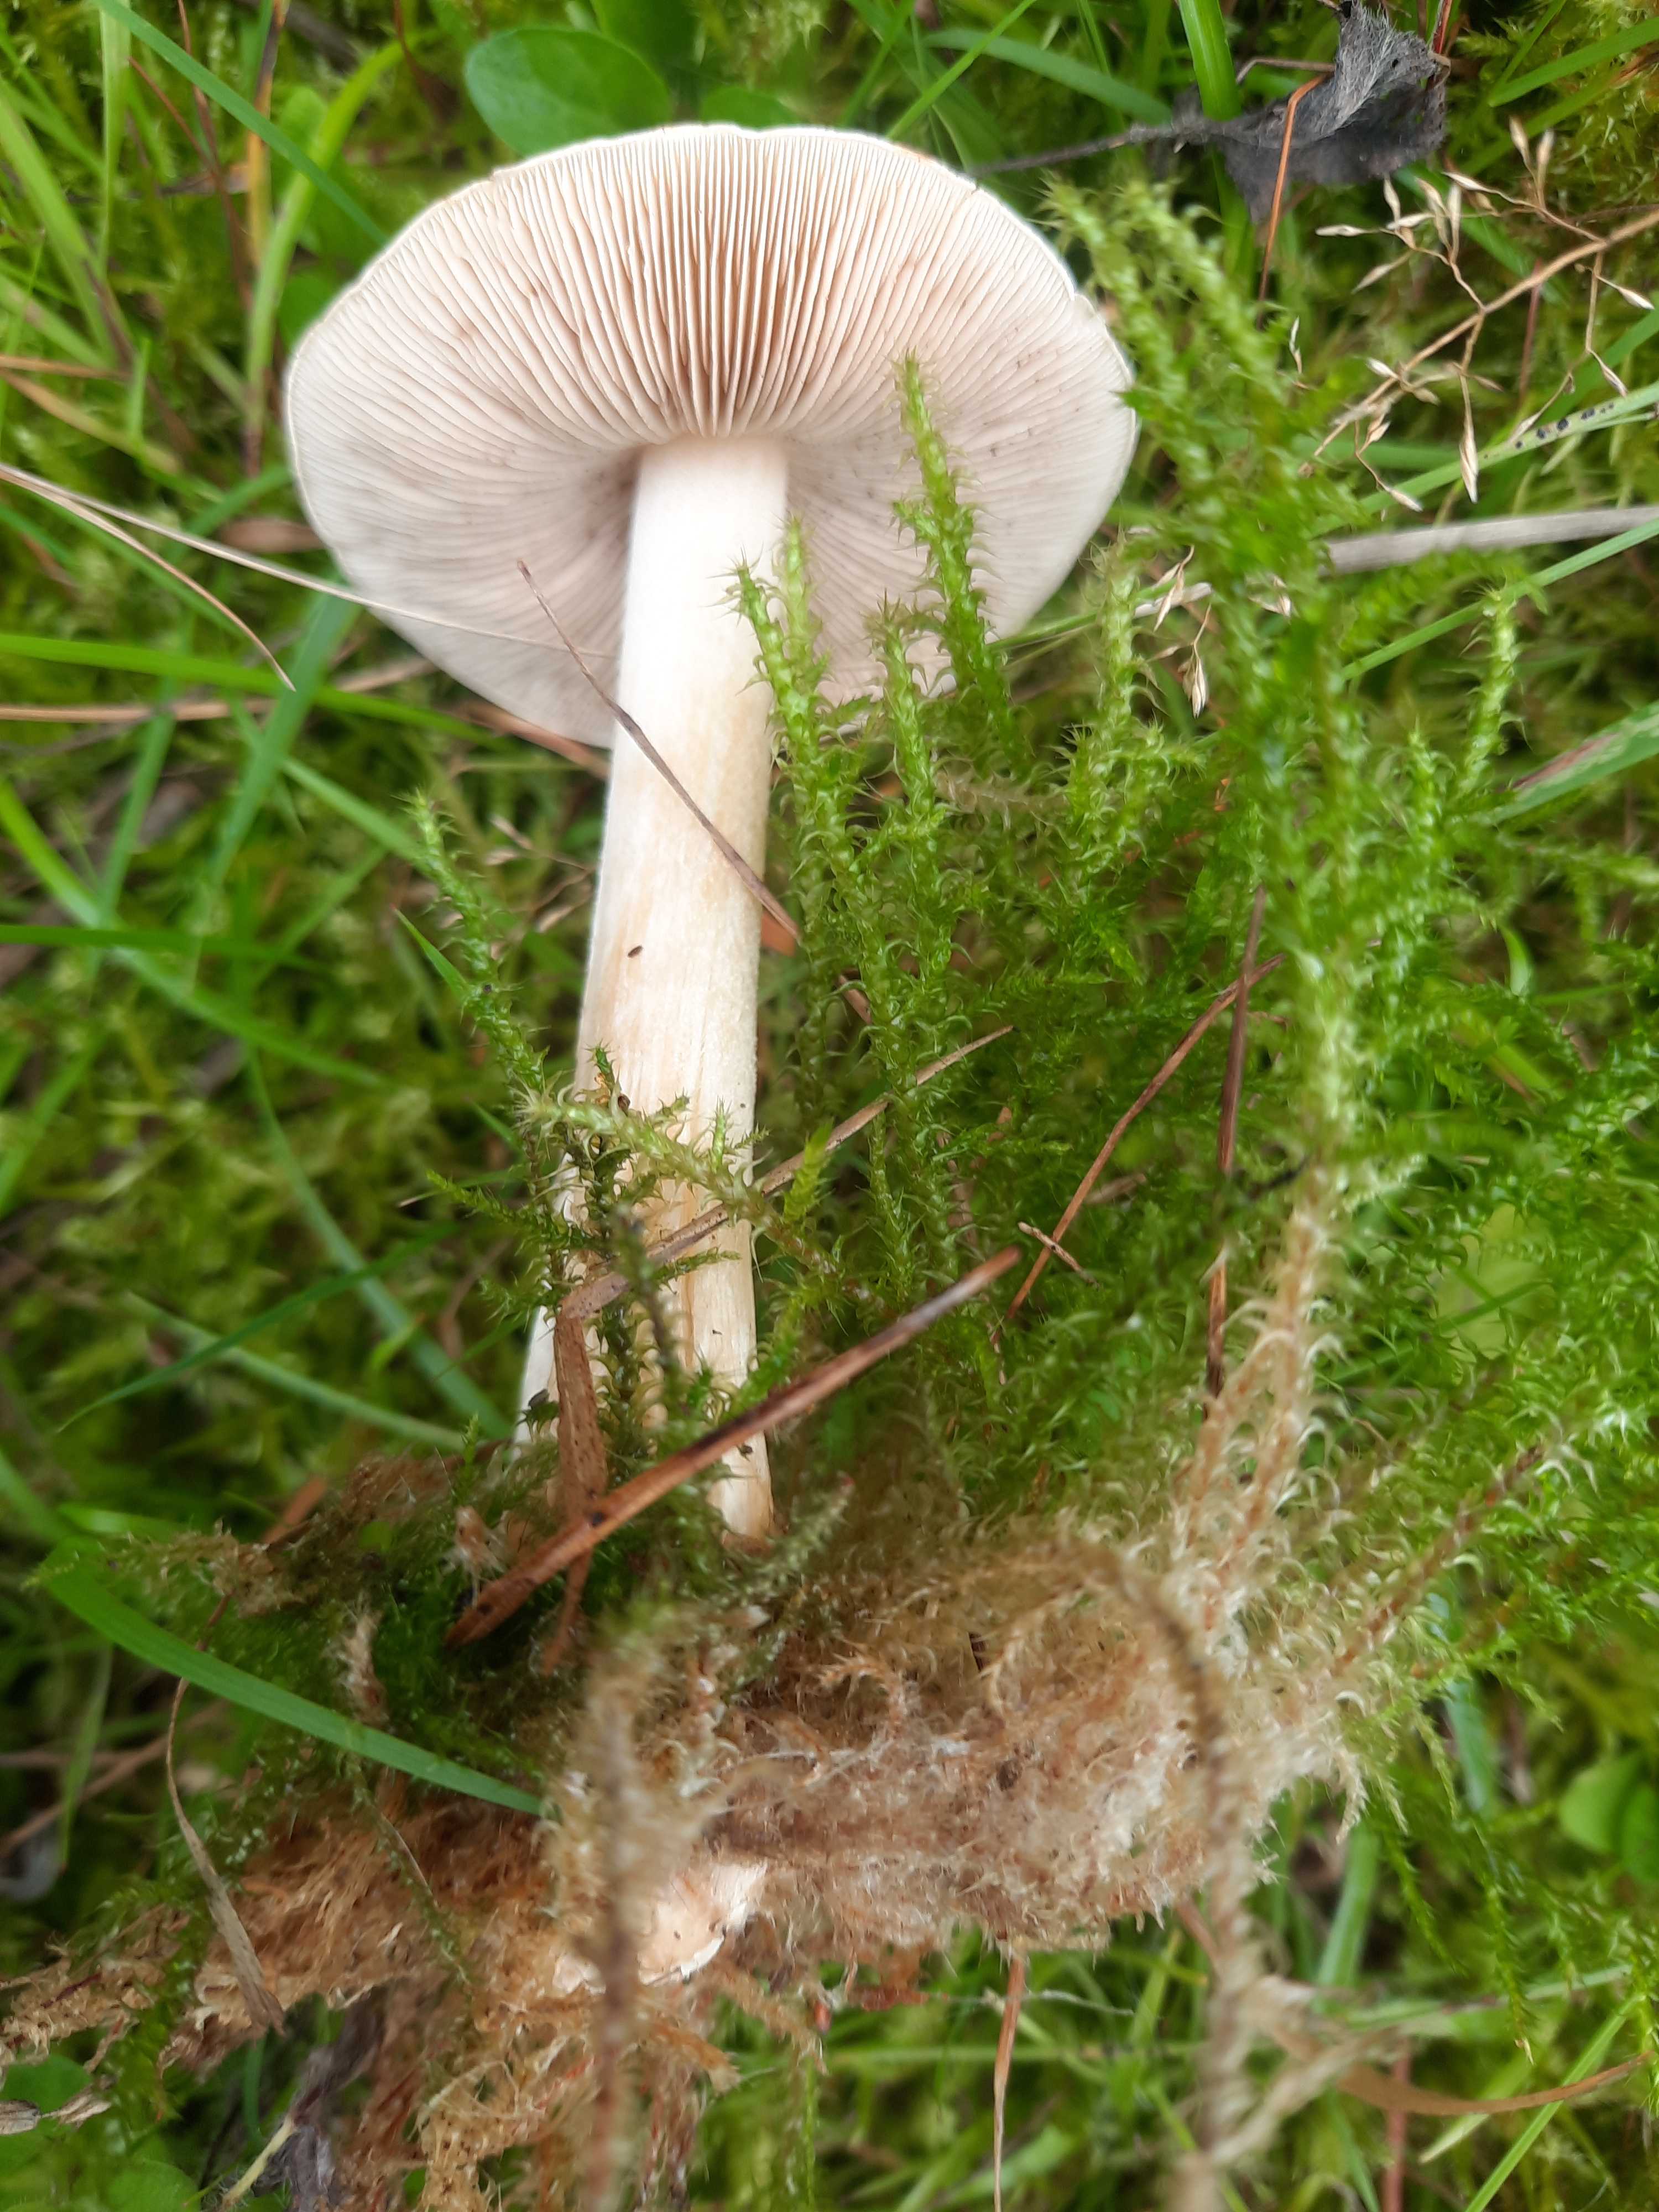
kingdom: Fungi
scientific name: Fungi
